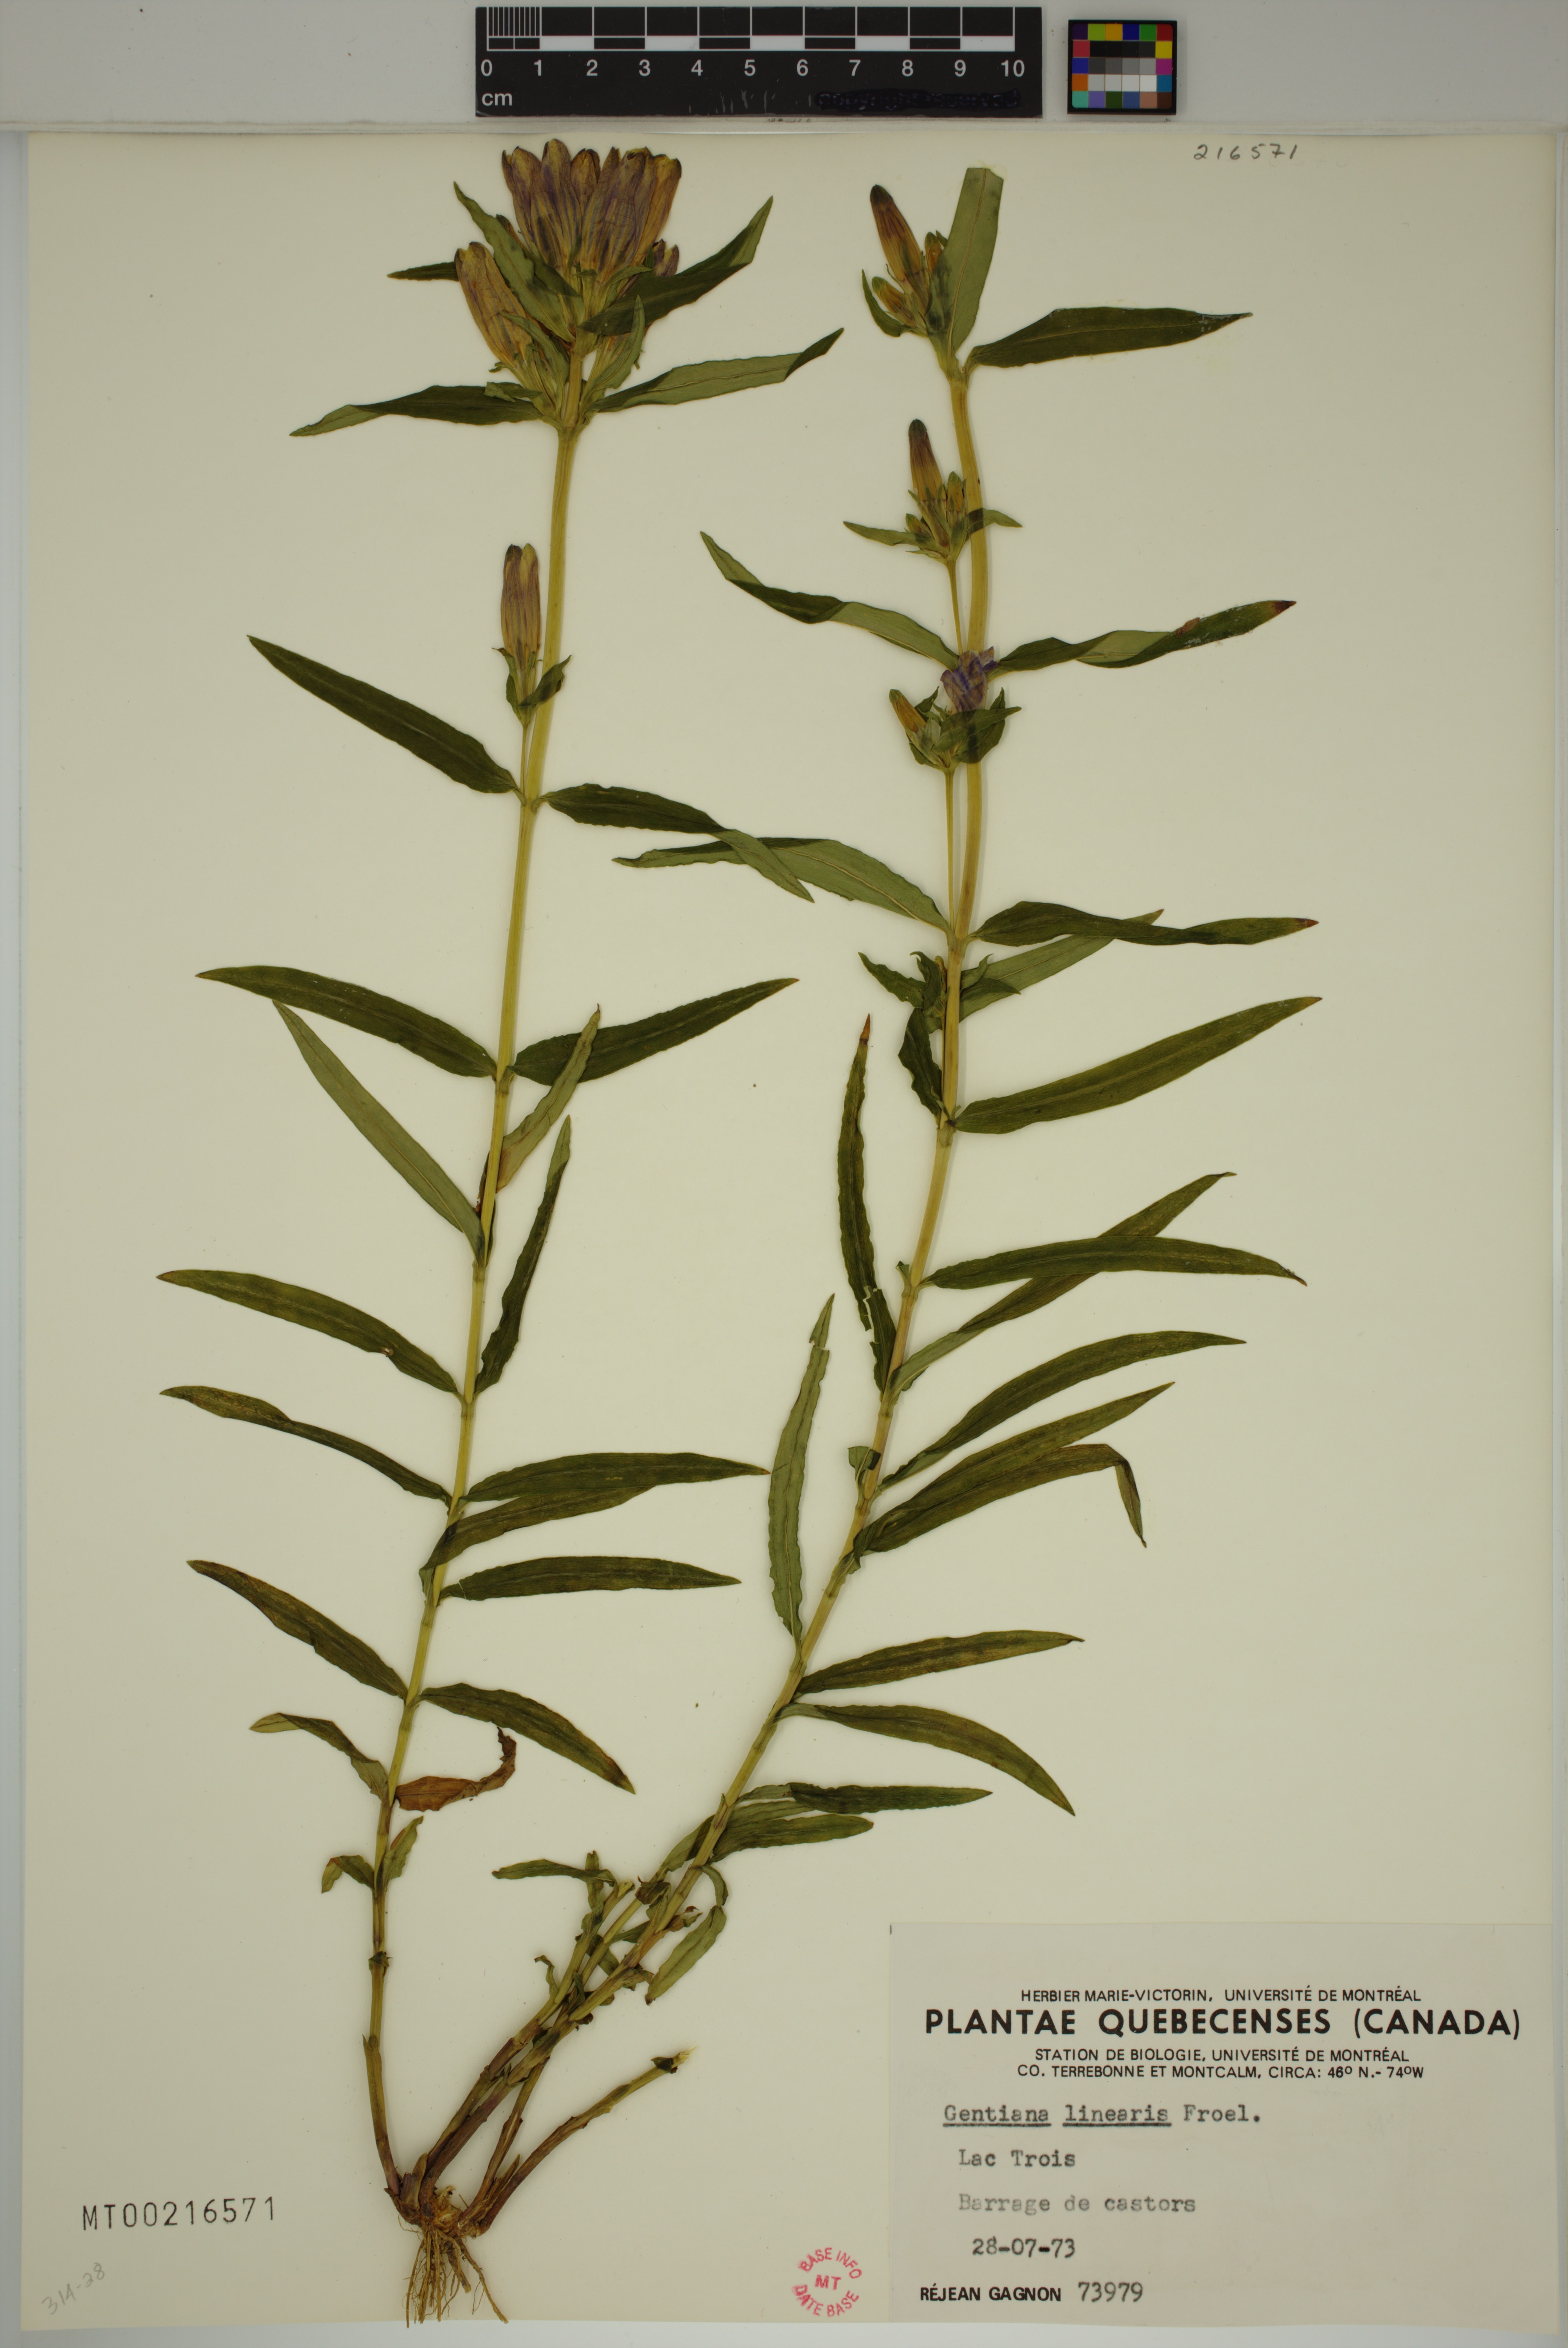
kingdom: Plantae
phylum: Tracheophyta
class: Magnoliopsida
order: Gentianales
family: Gentianaceae
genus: Gentiana
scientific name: Gentiana linearis
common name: Bastard gentian
